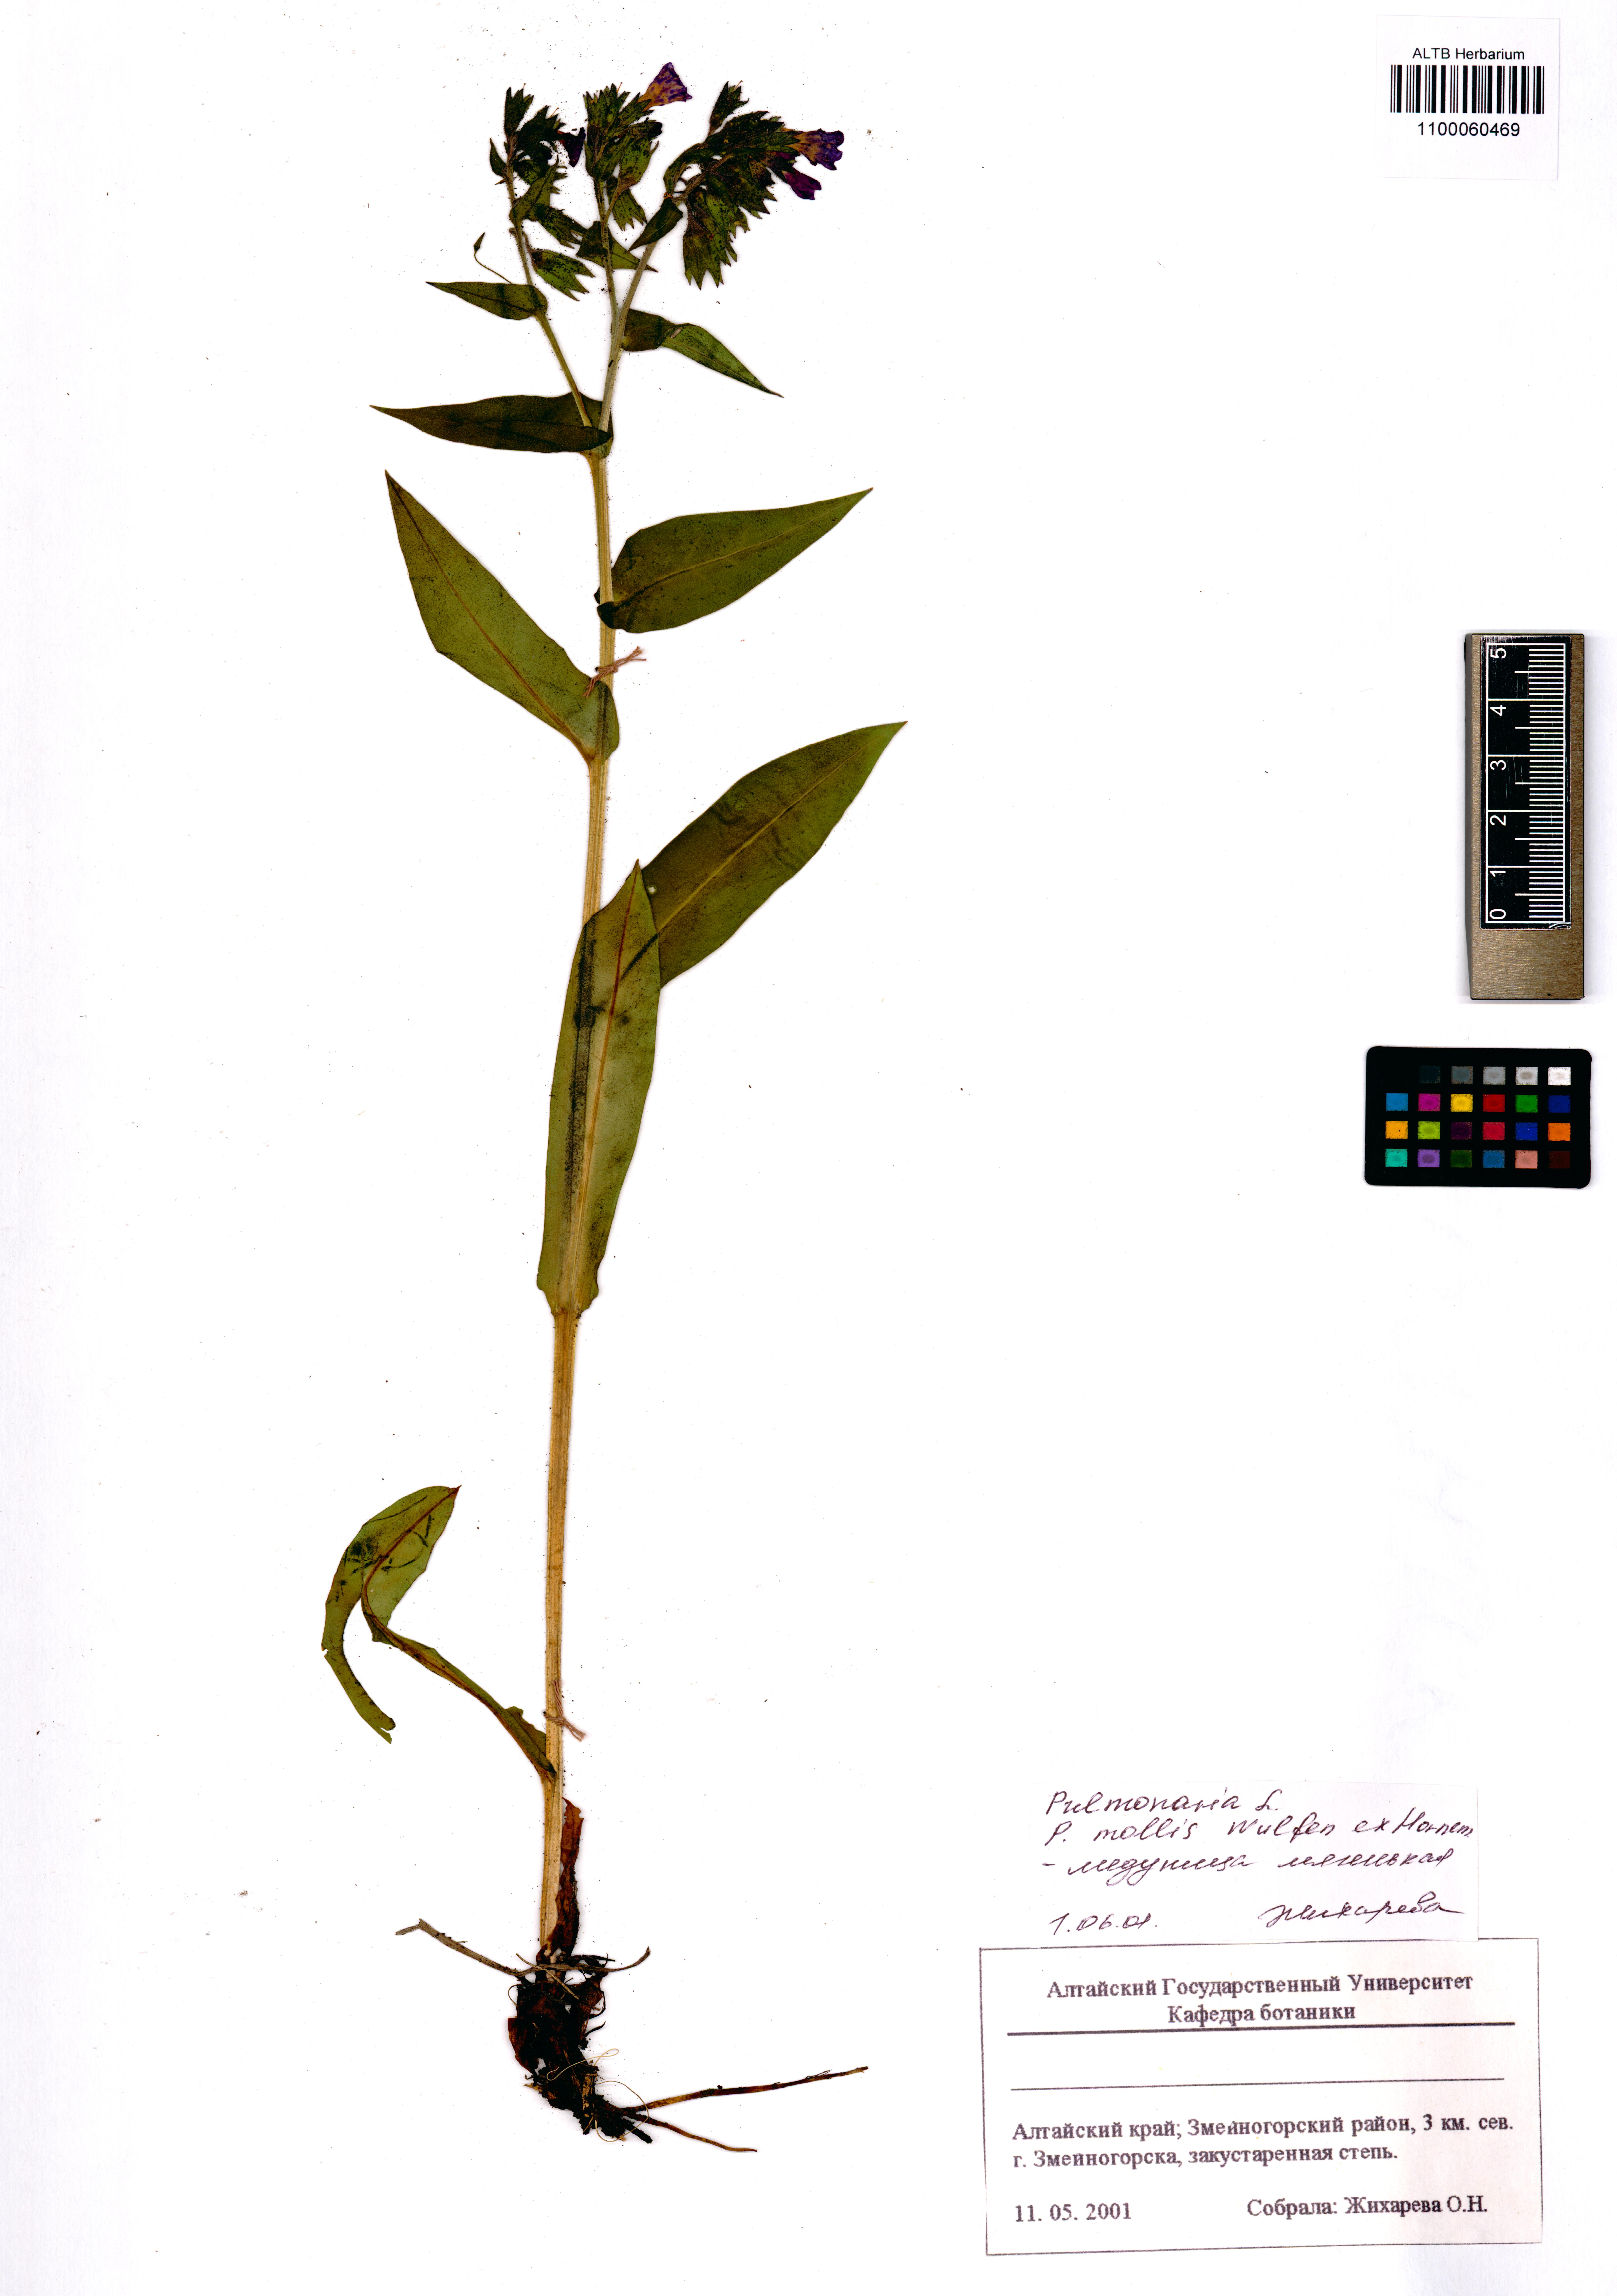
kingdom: Plantae
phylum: Tracheophyta
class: Magnoliopsida
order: Boraginales
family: Boraginaceae
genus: Pulmonaria
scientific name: Pulmonaria mollis
